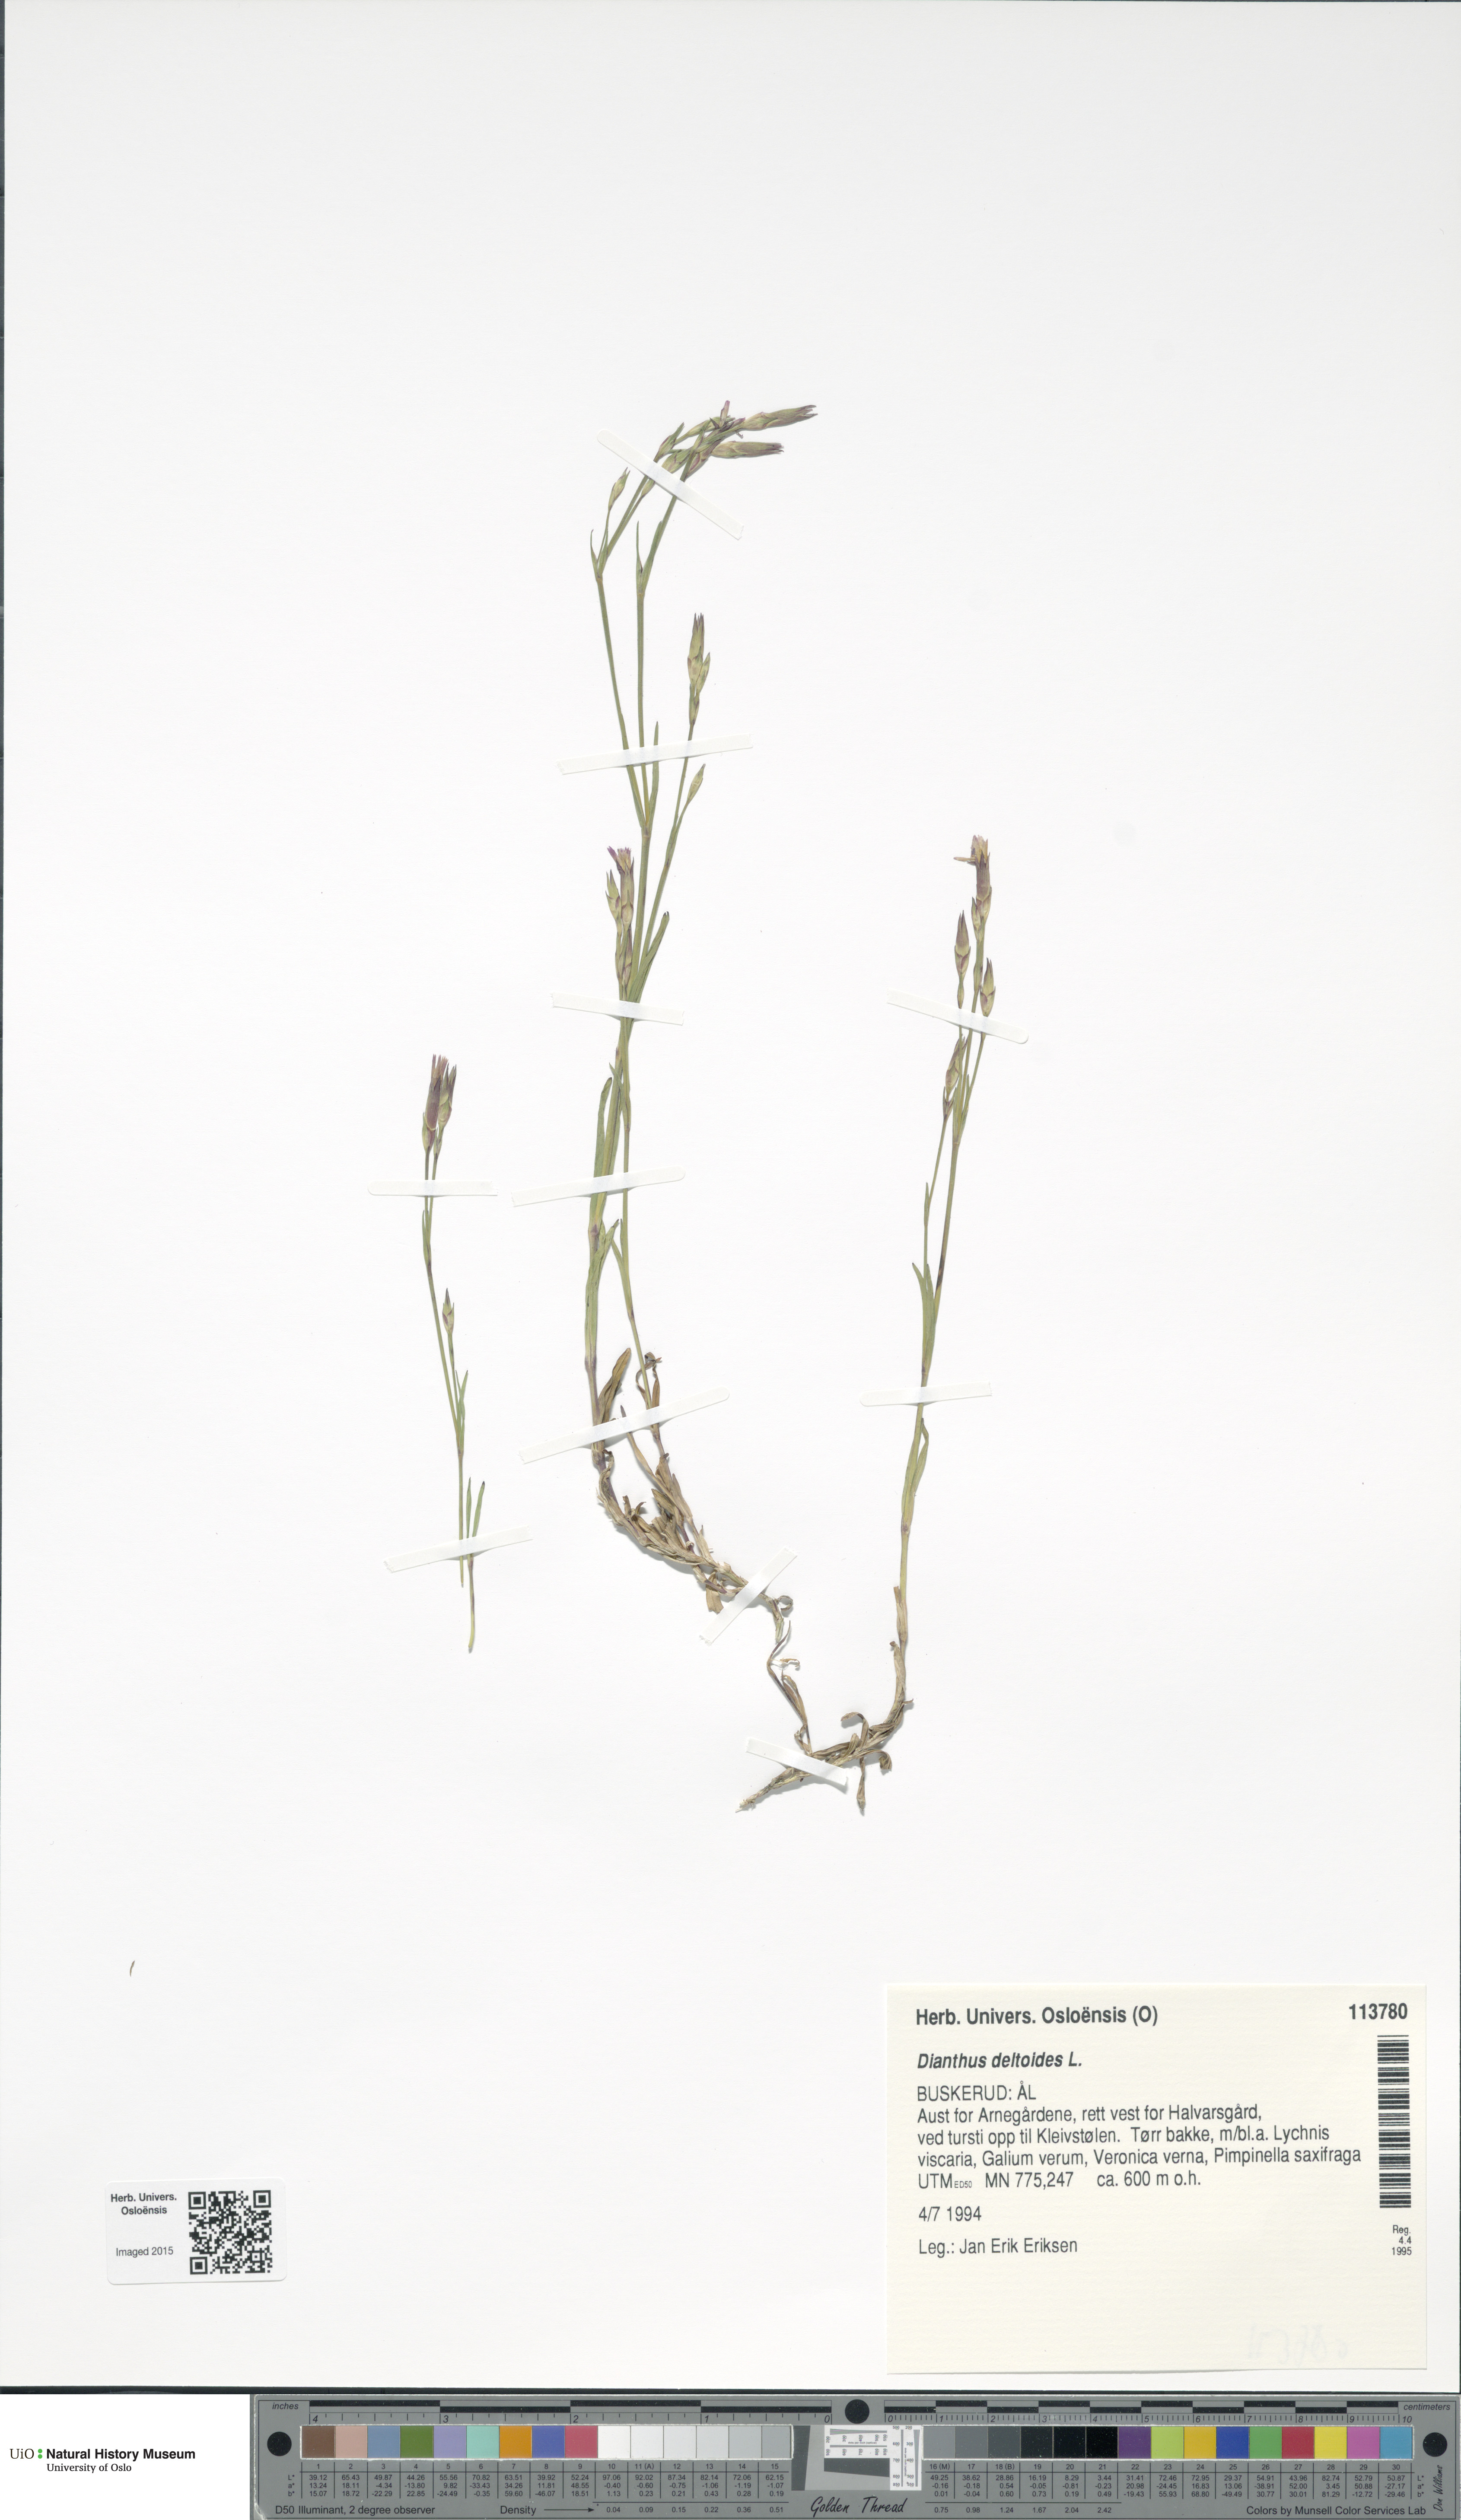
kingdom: Plantae
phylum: Tracheophyta
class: Magnoliopsida
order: Caryophyllales
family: Caryophyllaceae
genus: Dianthus
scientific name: Dianthus deltoides
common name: Maiden pink
